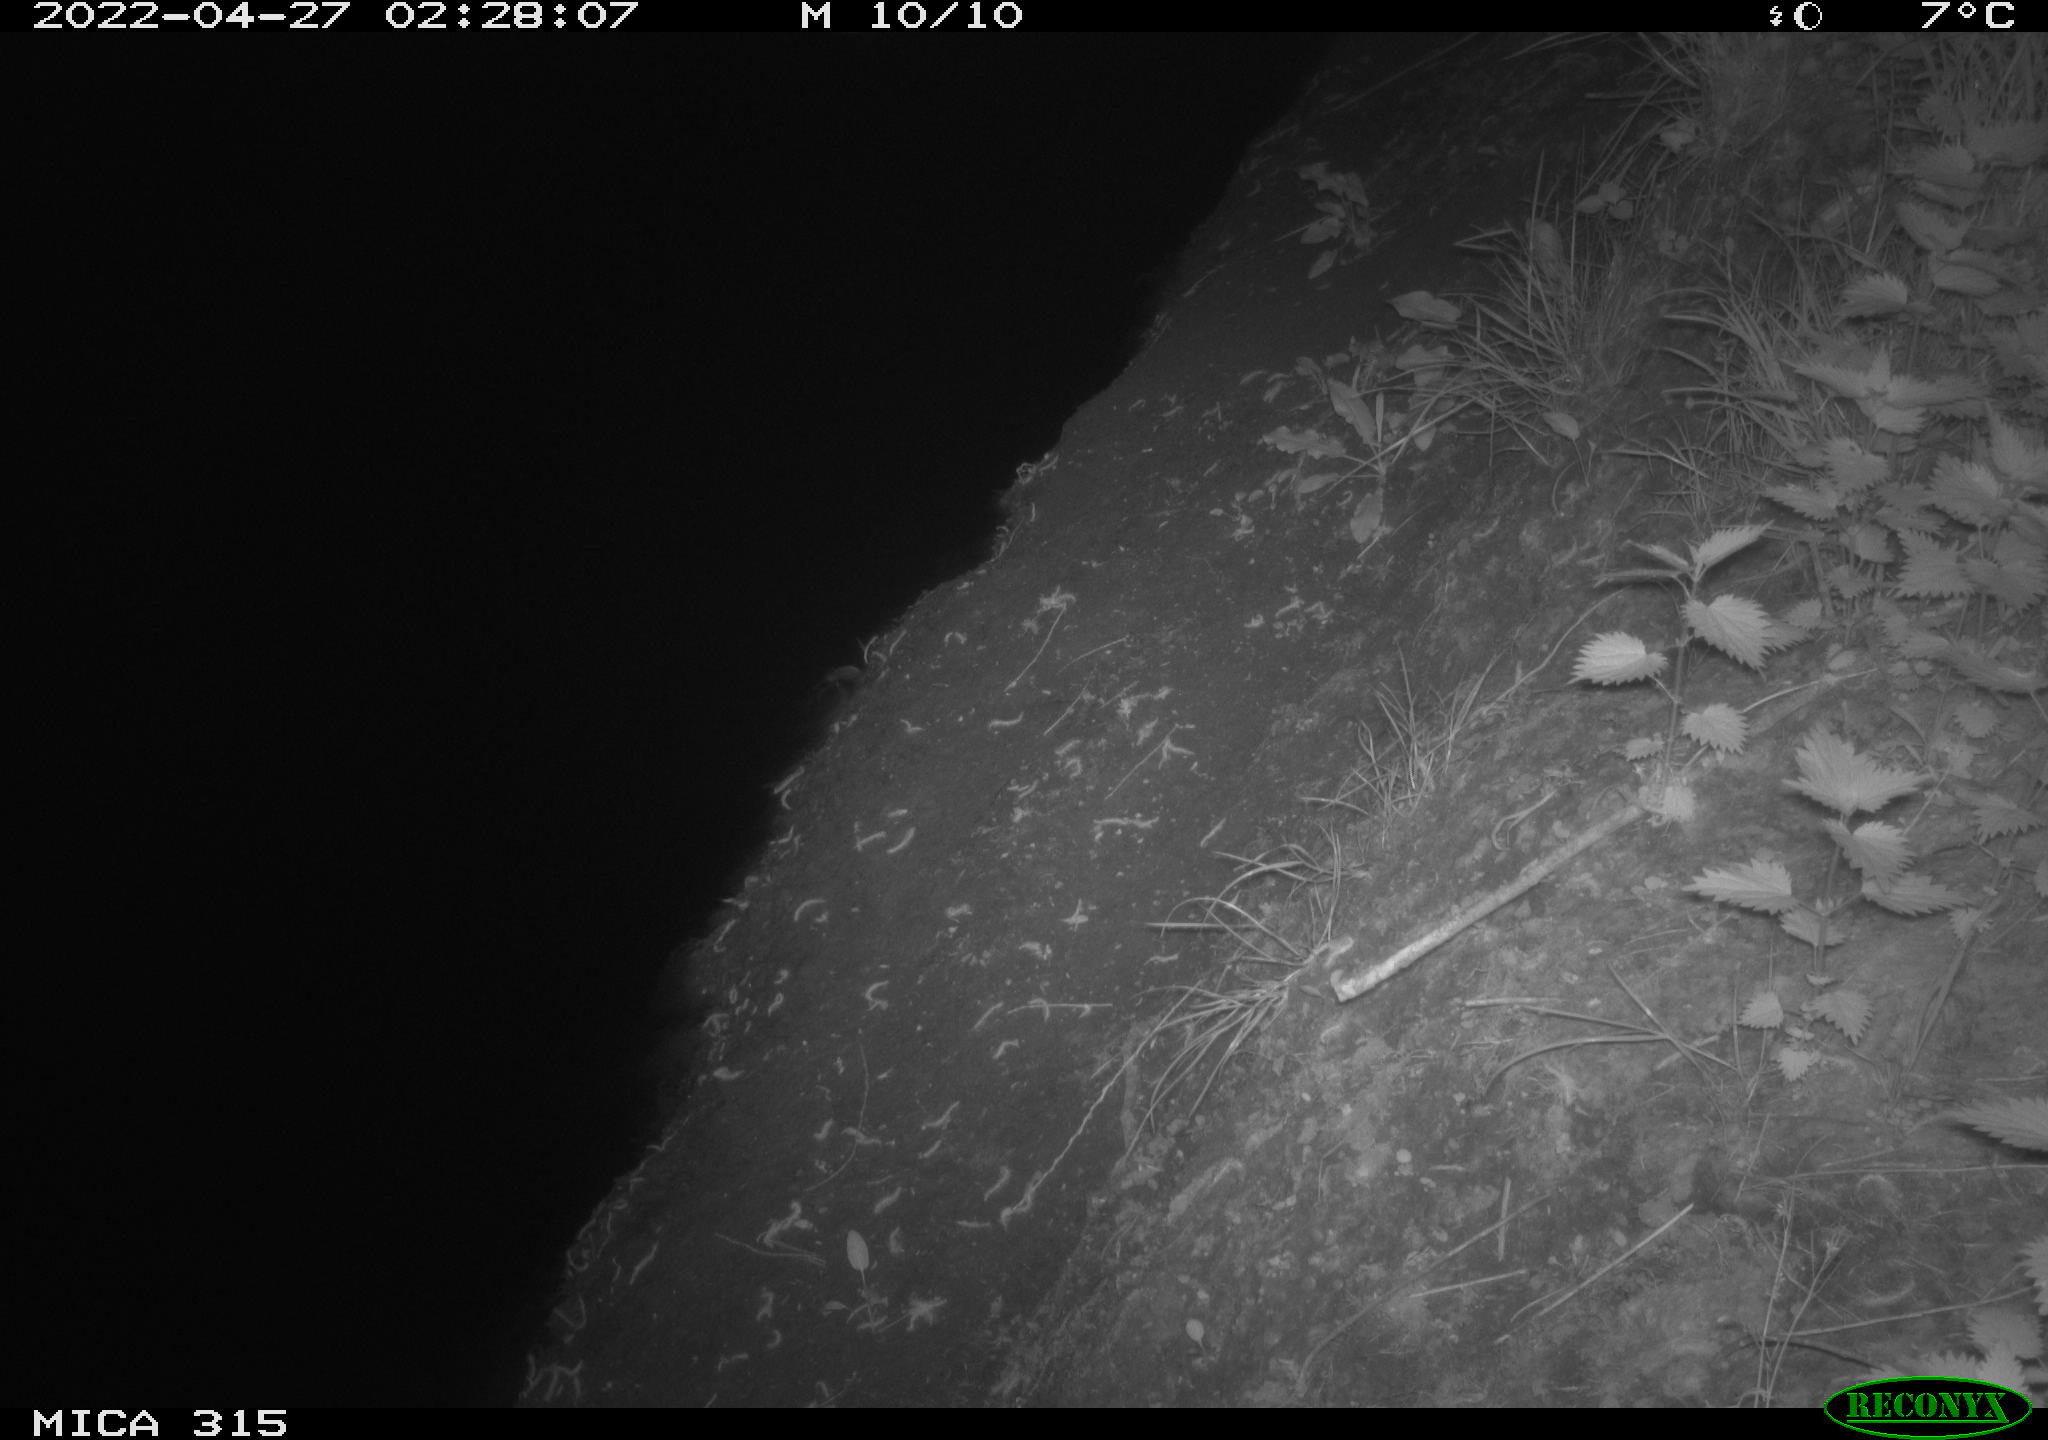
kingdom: Animalia
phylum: Chordata
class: Aves
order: Anseriformes
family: Anatidae
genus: Anas
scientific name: Anas platyrhynchos
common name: Mallard
